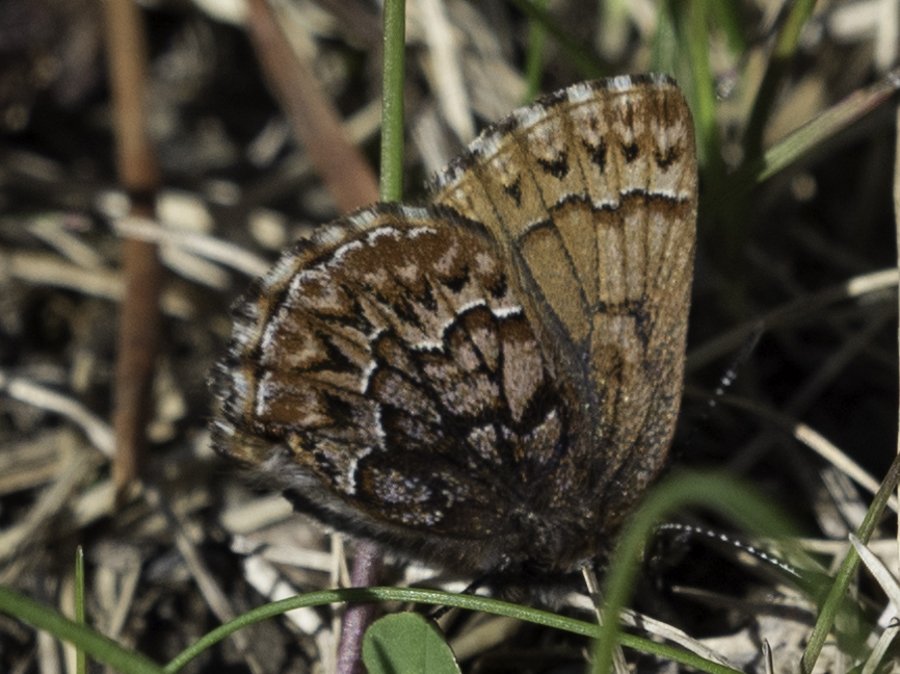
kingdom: Animalia
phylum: Arthropoda
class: Insecta
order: Lepidoptera
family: Lycaenidae
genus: Incisalia
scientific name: Incisalia eryphon
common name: Western Pine Elfin
